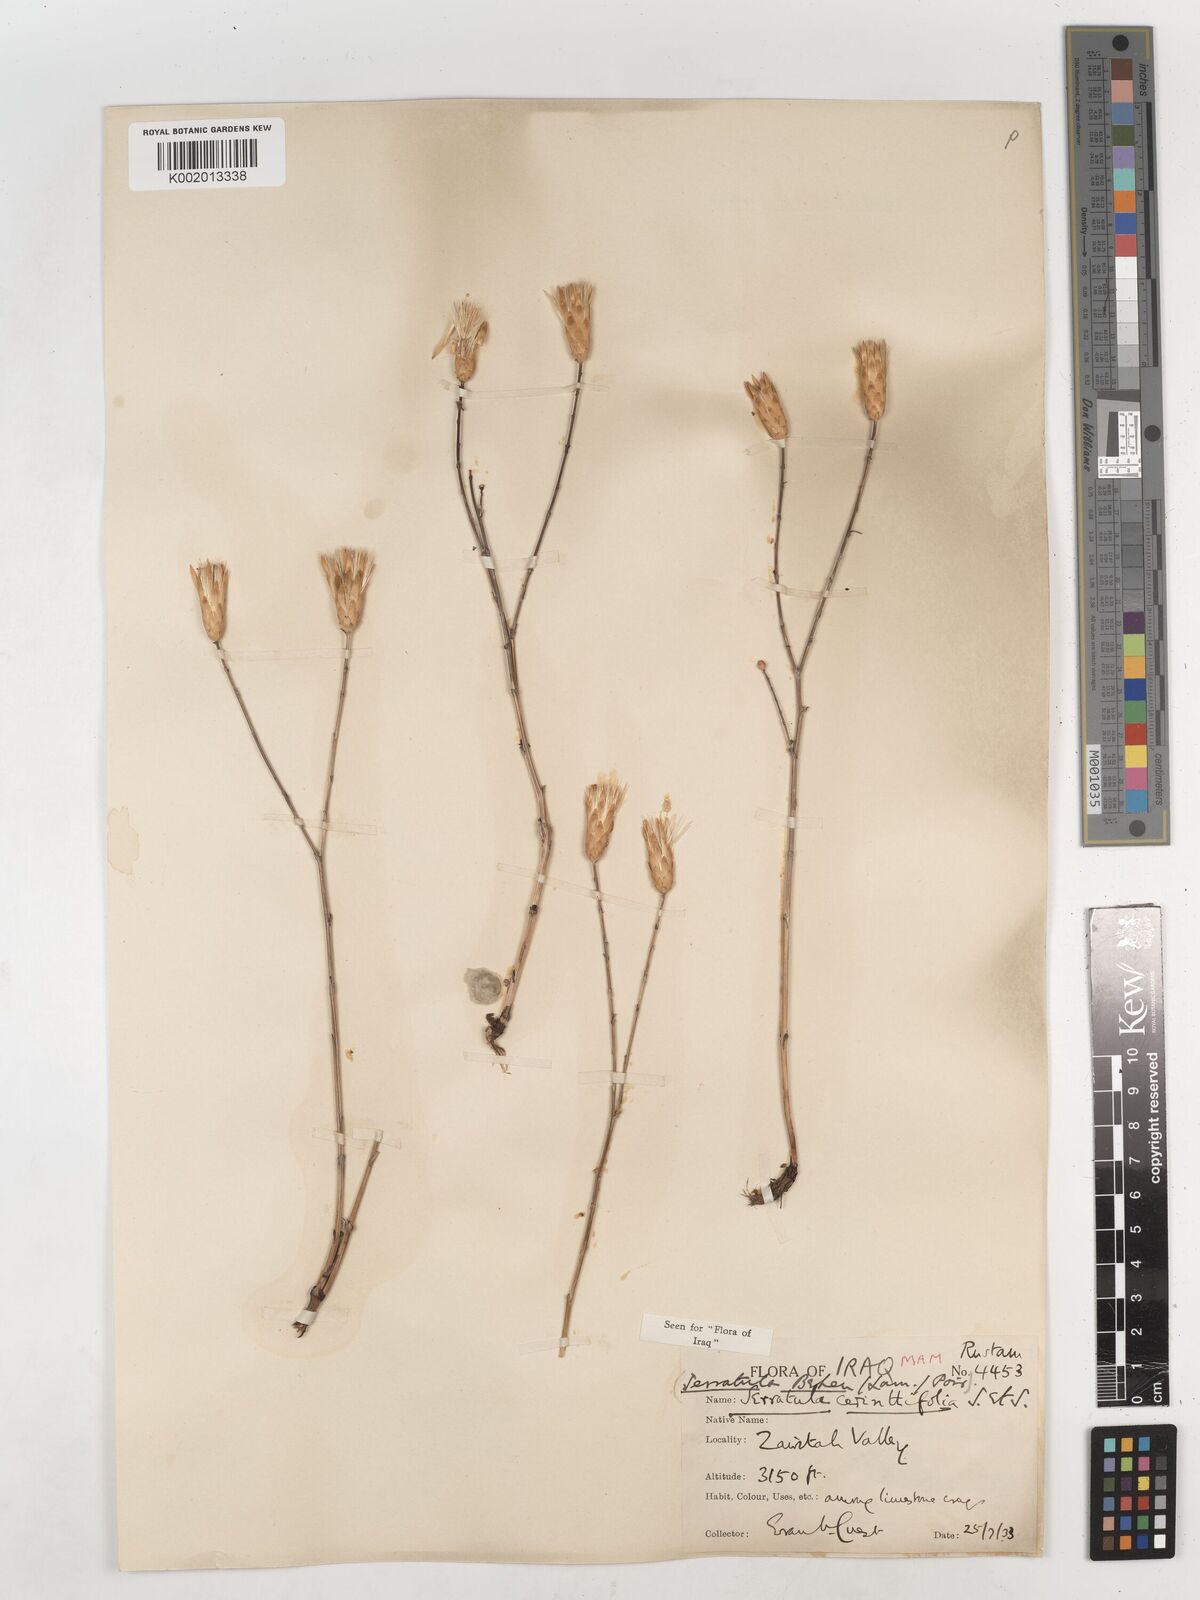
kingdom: Plantae
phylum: Tracheophyta
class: Magnoliopsida
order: Asterales
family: Asteraceae
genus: Klasea
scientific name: Klasea cerinthifolia
